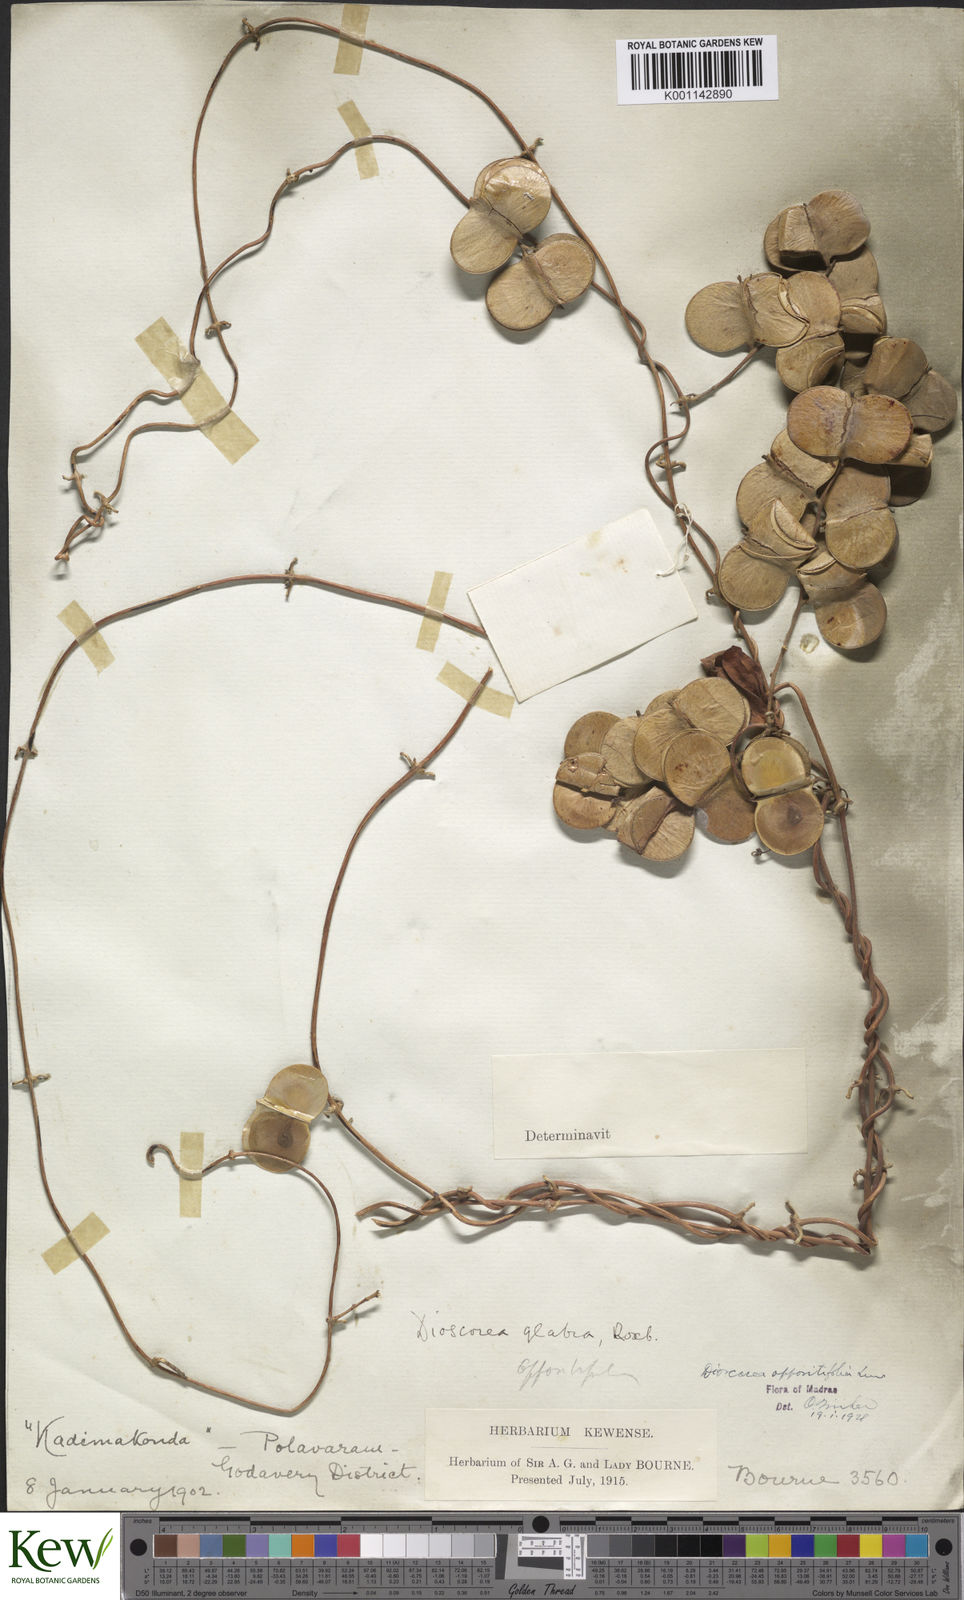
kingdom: Plantae
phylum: Tracheophyta
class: Liliopsida
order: Dioscoreales
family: Dioscoreaceae
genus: Dioscorea
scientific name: Dioscorea oppositifolia
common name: Chinese yam
